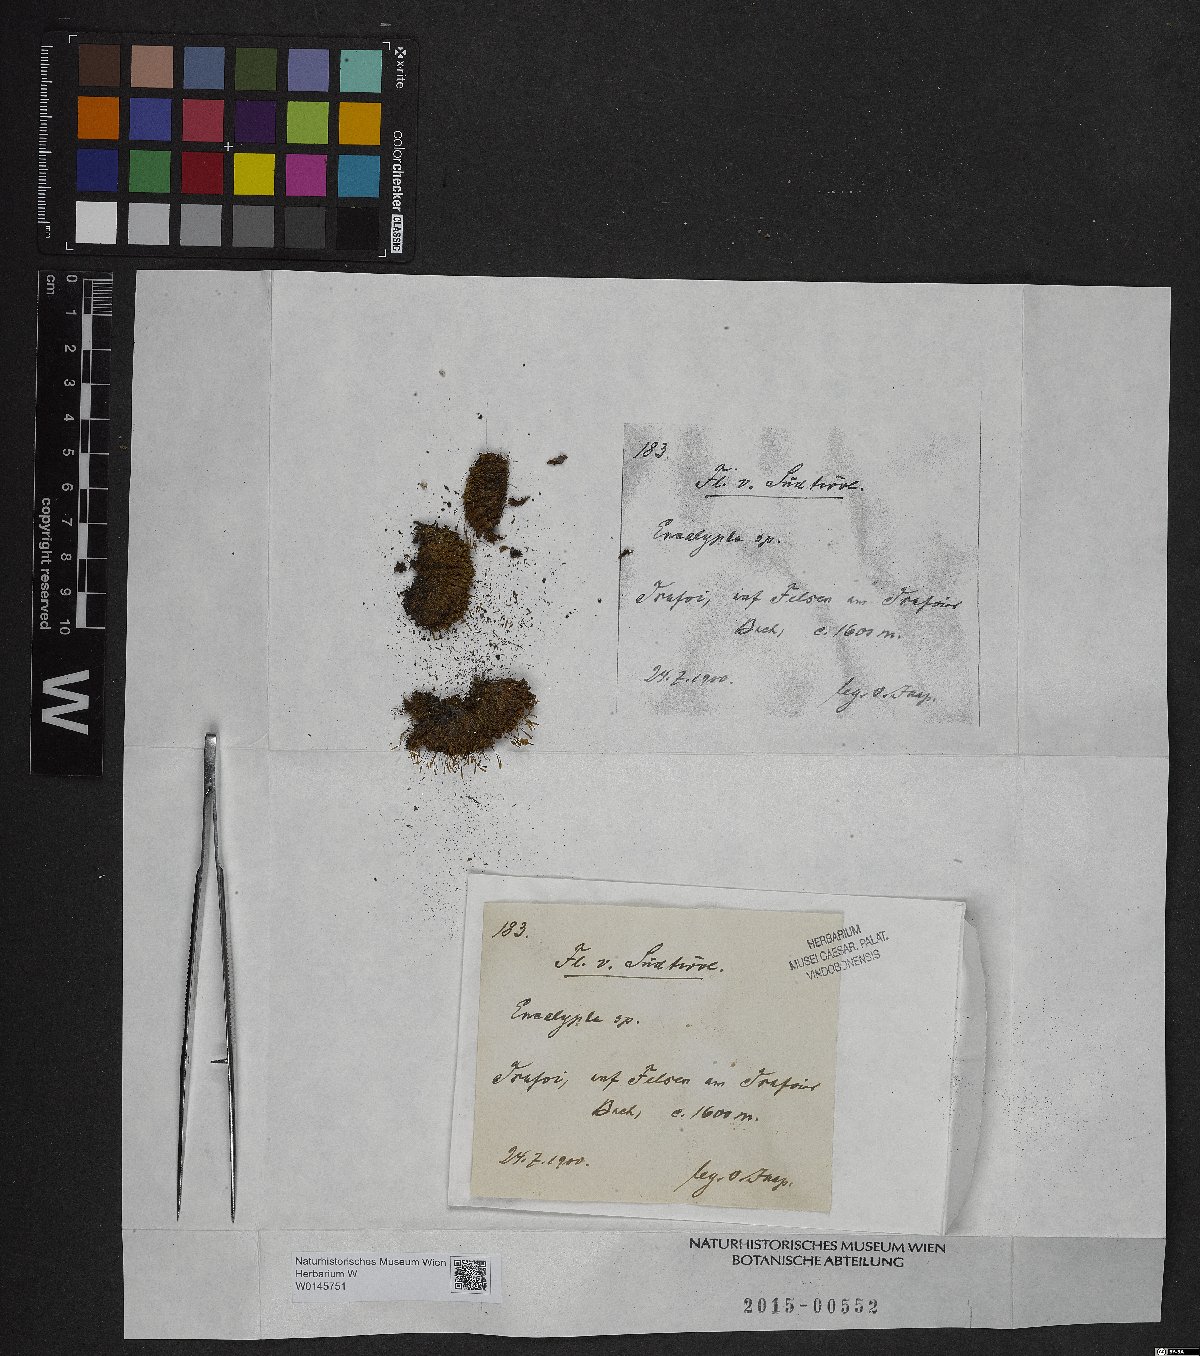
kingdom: Plantae
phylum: Bryophyta
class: Bryopsida
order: Encalyptales
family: Encalyptaceae
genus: Encalypta
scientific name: Encalypta
